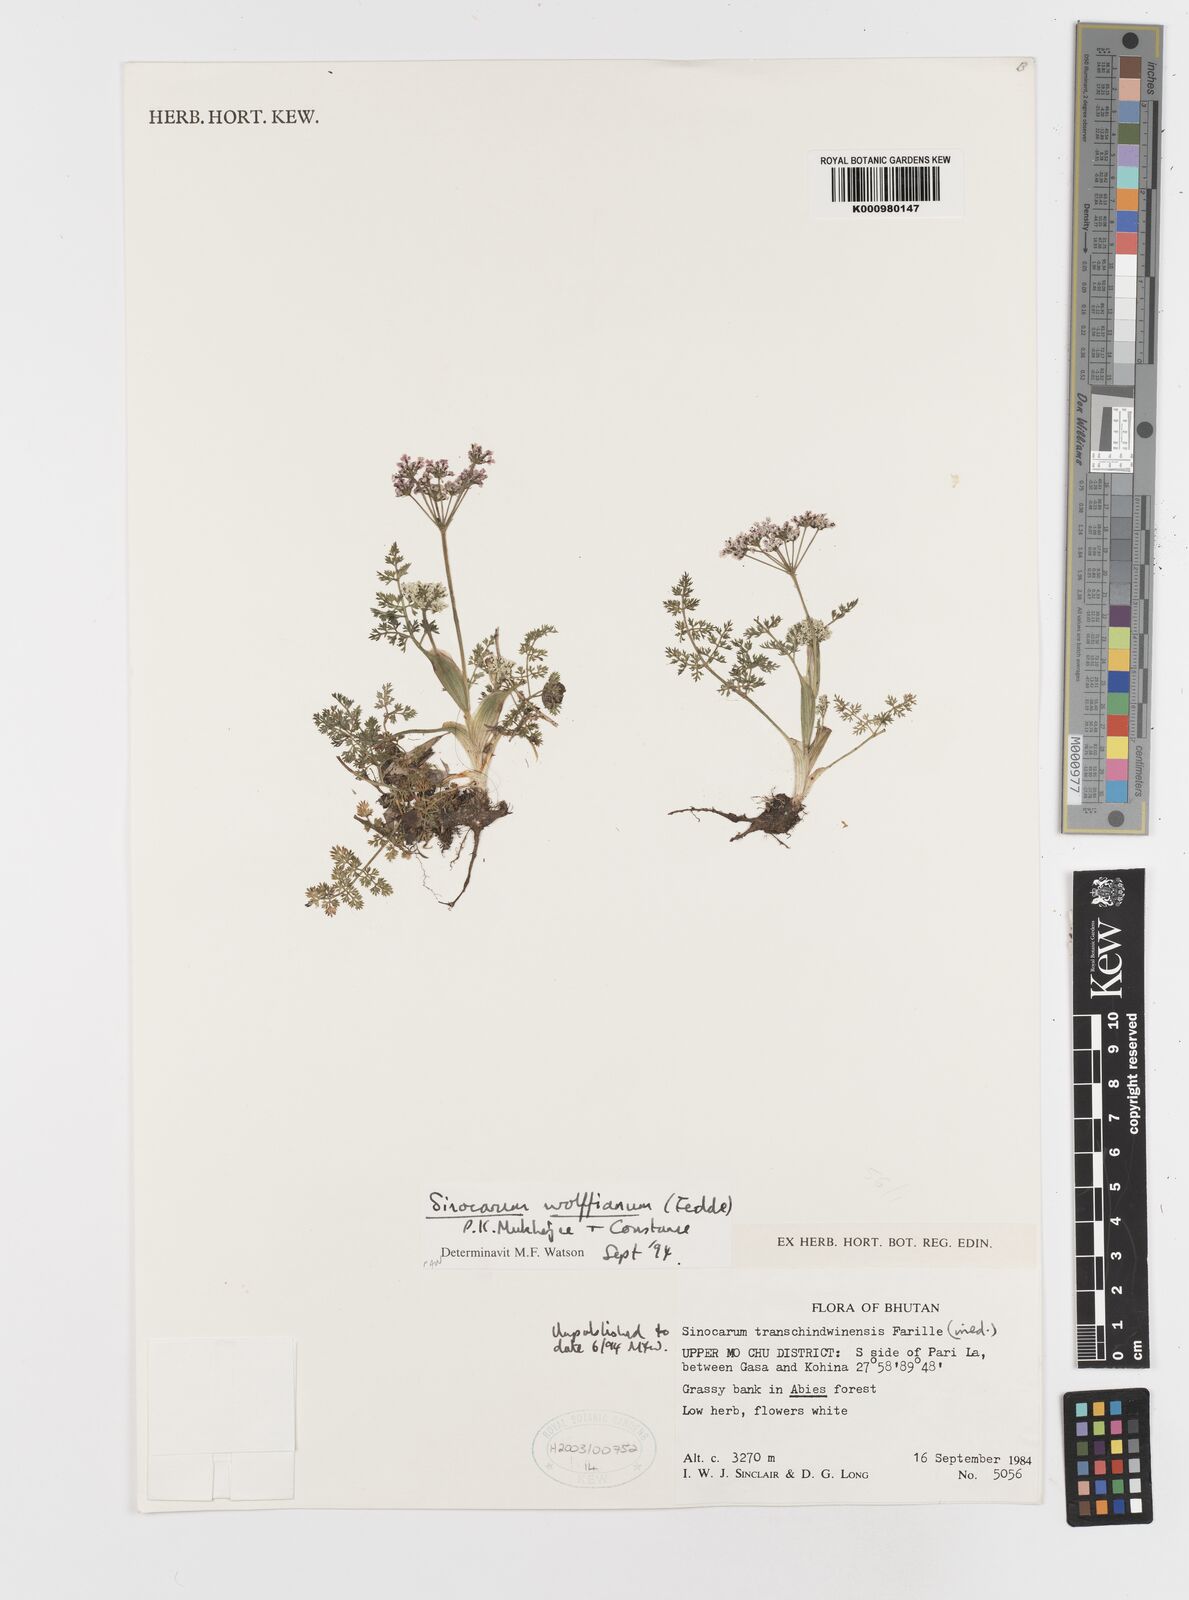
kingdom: Plantae
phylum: Tracheophyta
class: Magnoliopsida
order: Apiales
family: Apiaceae
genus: Sinocarum
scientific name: Sinocarum wolffianum
